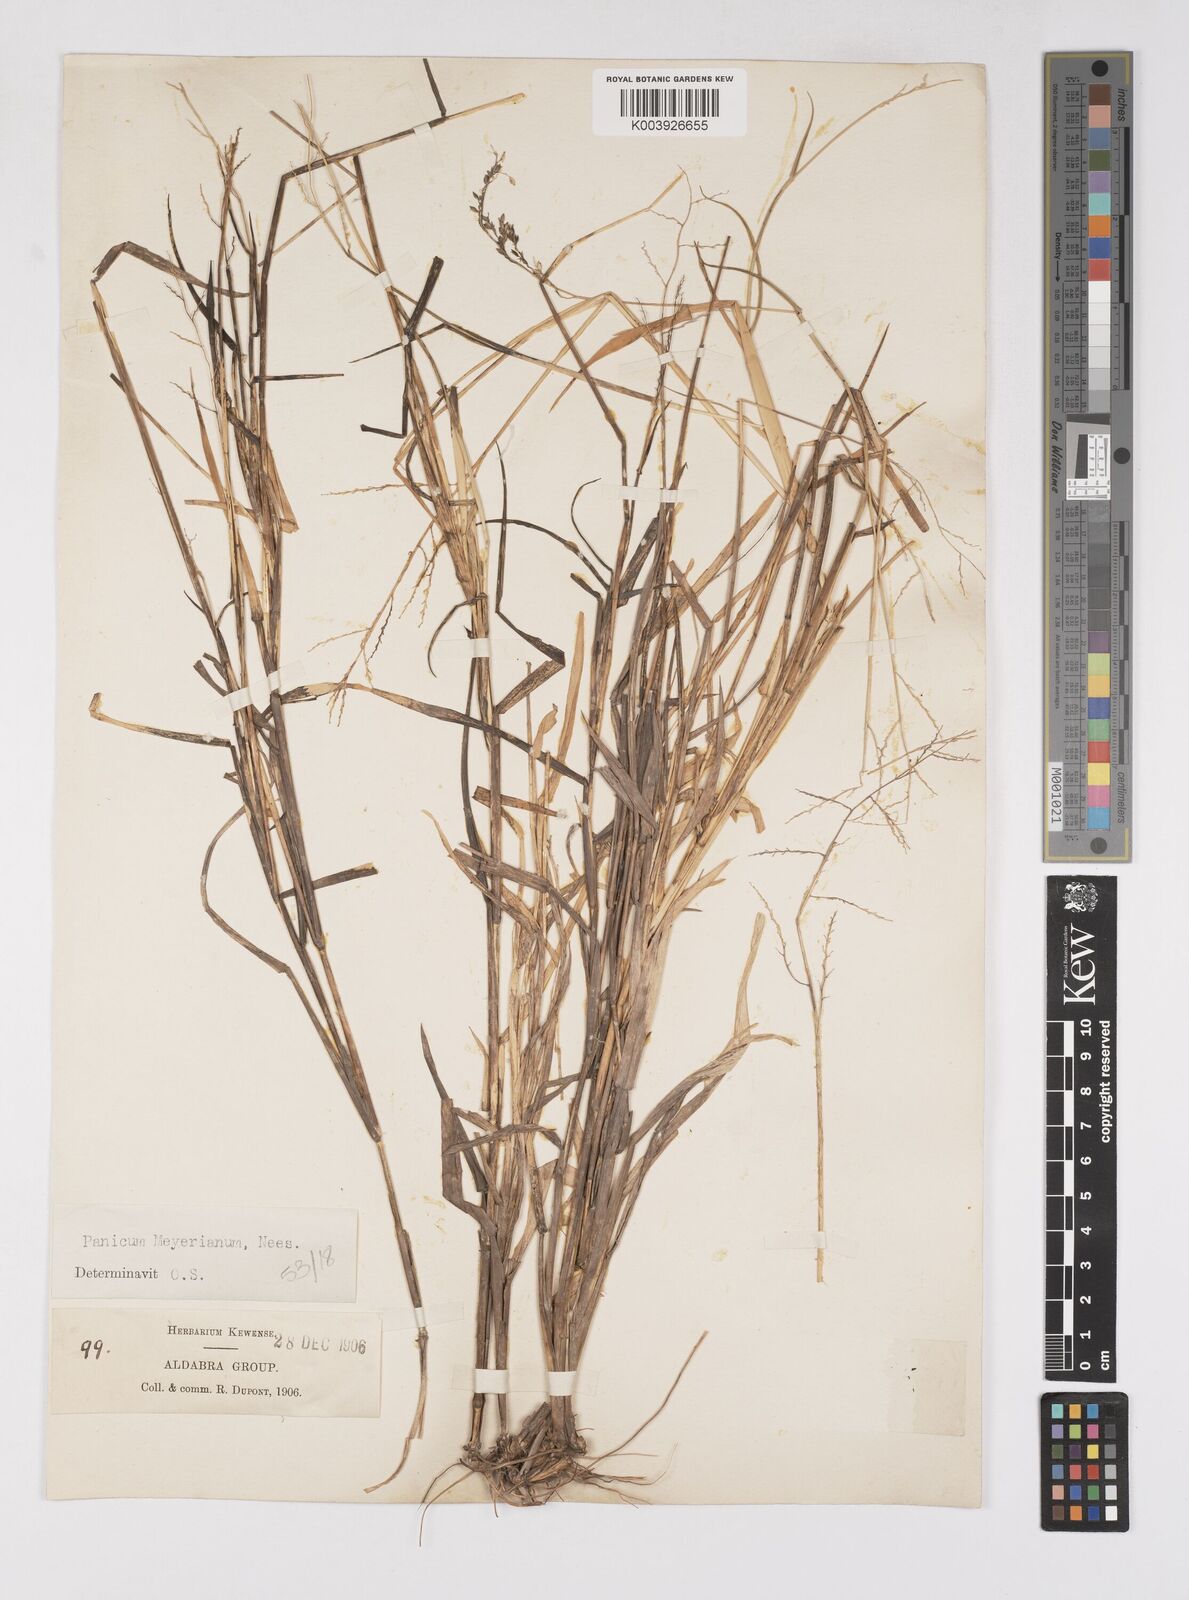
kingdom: Plantae
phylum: Tracheophyta
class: Liliopsida
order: Poales
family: Poaceae
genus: Eriochloa
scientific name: Eriochloa meyeriana
